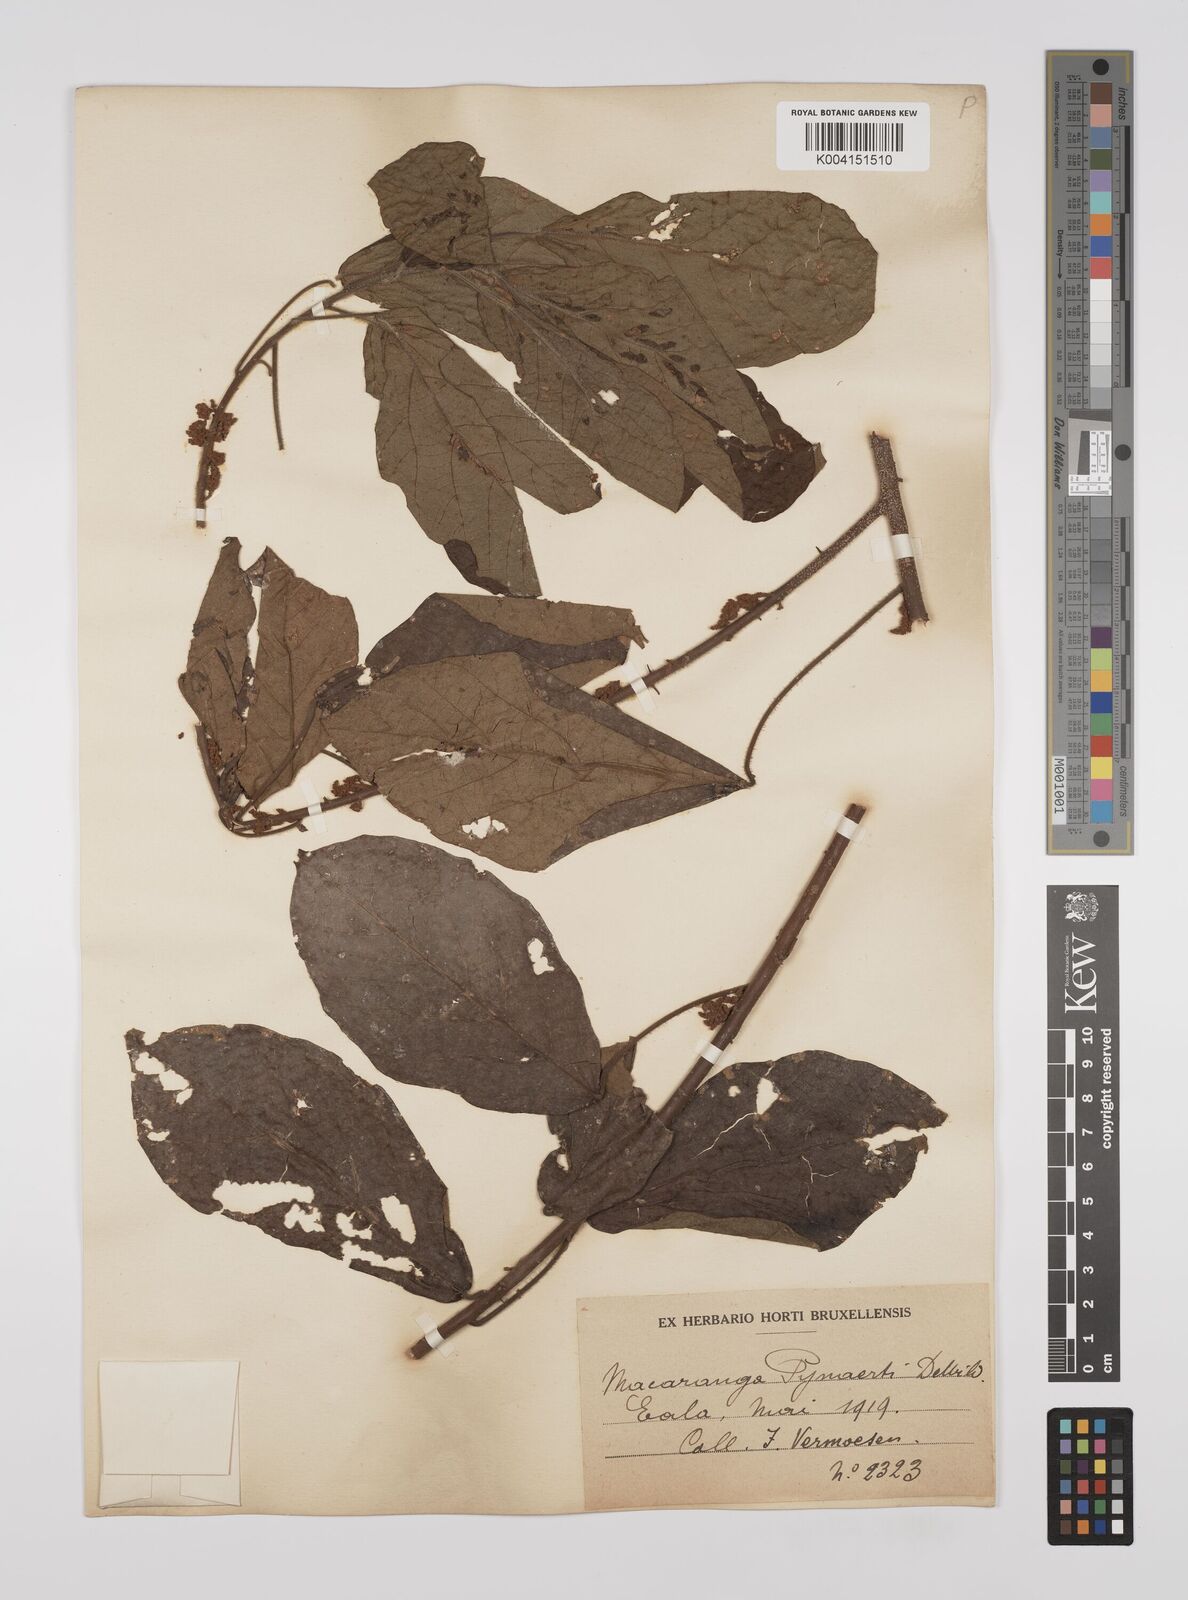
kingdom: Plantae
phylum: Tracheophyta
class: Magnoliopsida
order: Malpighiales
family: Euphorbiaceae
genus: Macaranga
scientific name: Macaranga spinosa
